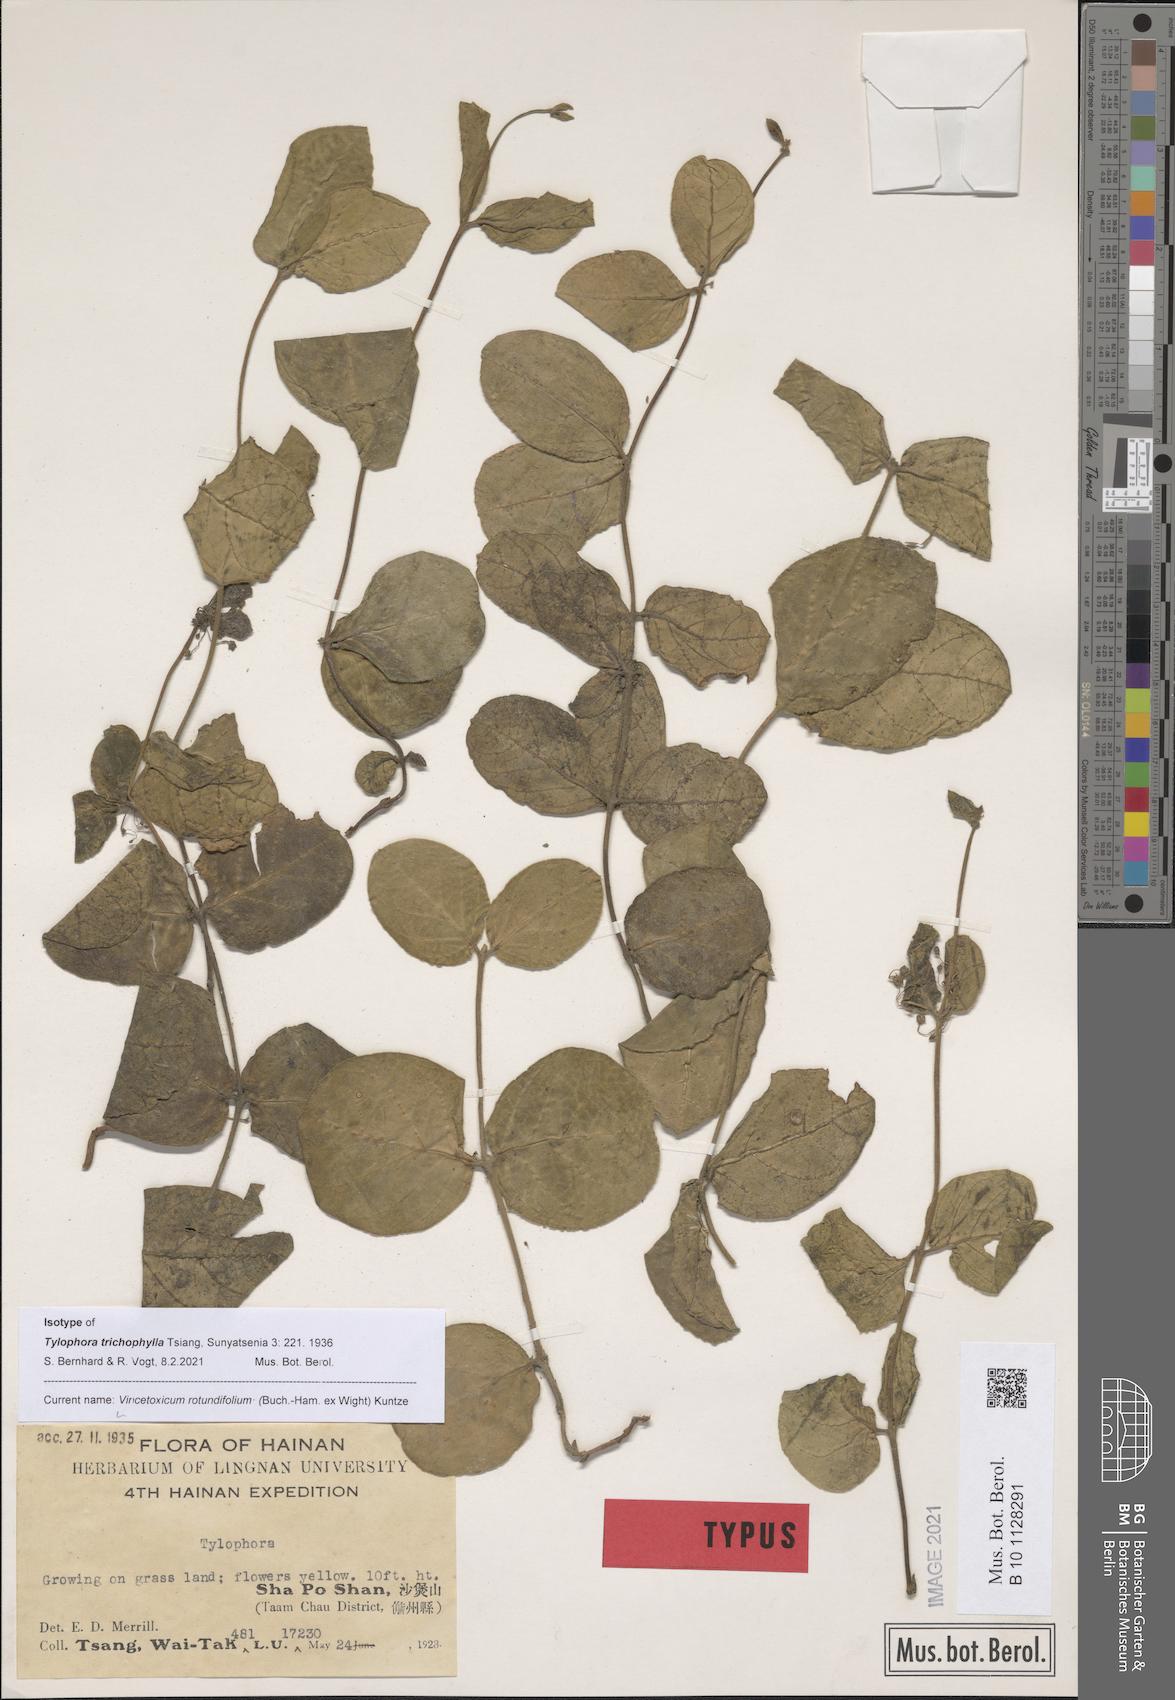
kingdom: Plantae
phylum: Tracheophyta
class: Magnoliopsida
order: Gentianales
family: Apocynaceae
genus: Vincetoxicum
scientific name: Vincetoxicum rotundifolium
